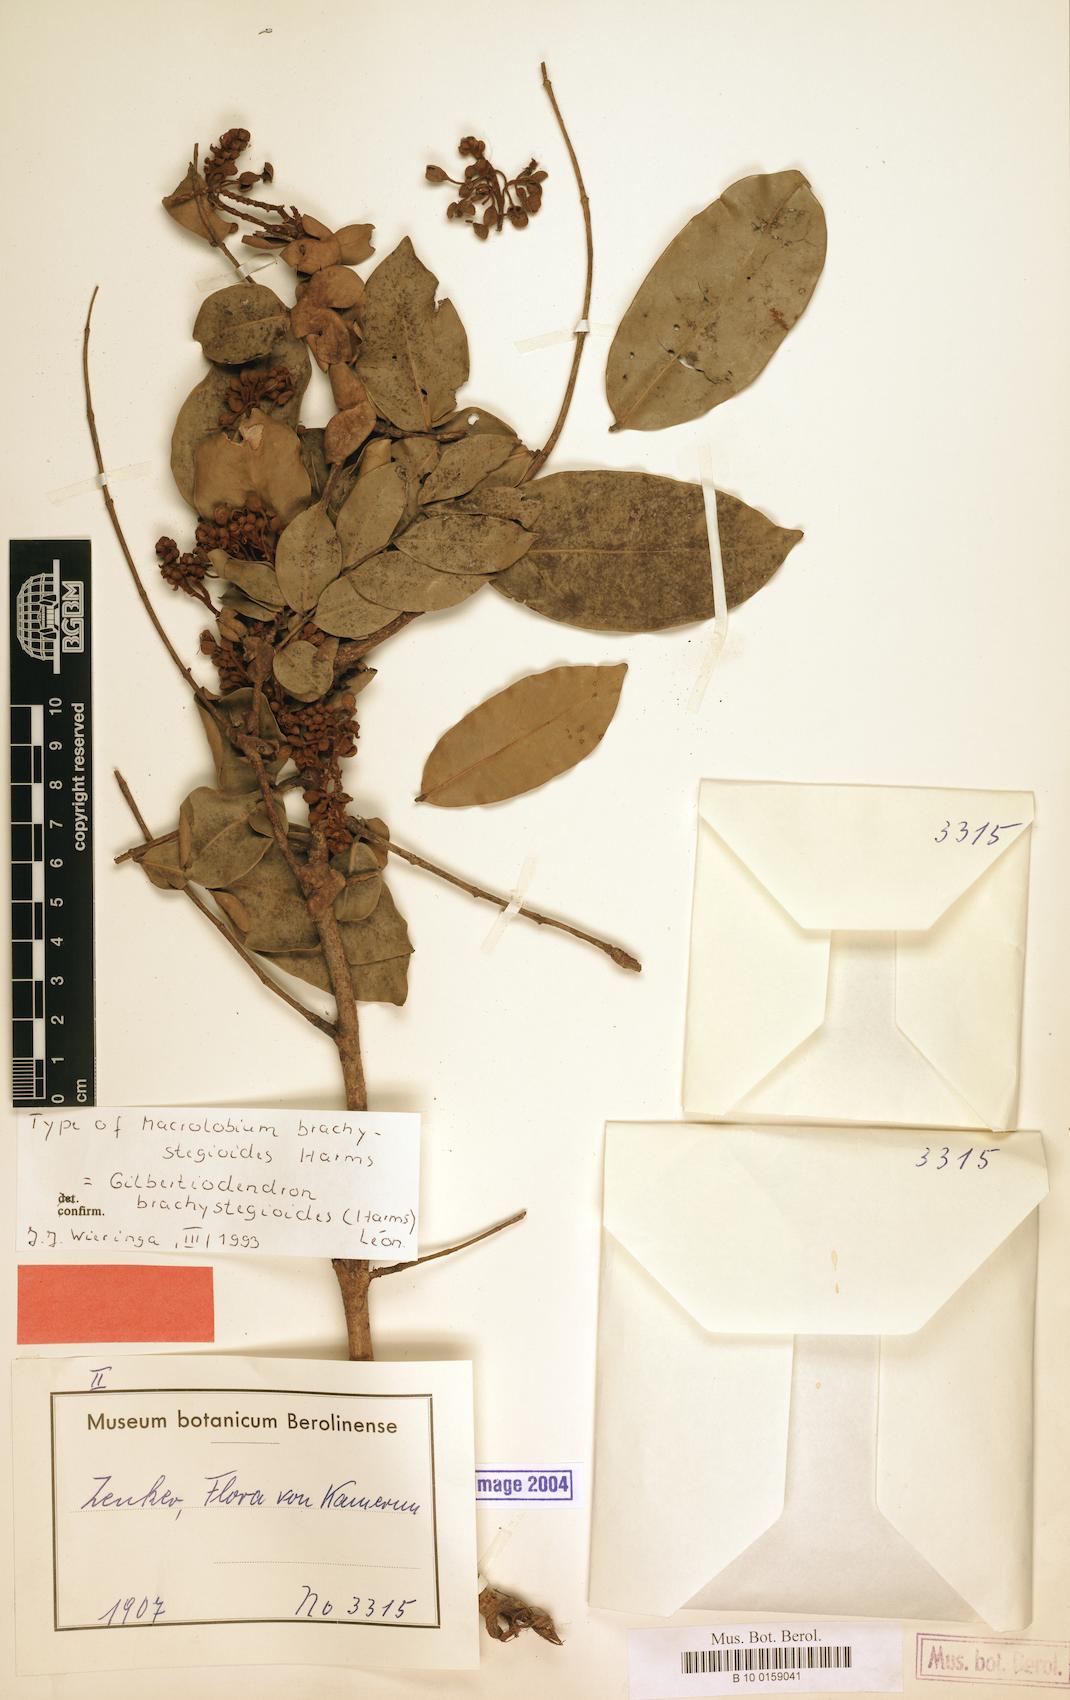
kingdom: Plantae
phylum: Tracheophyta
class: Magnoliopsida
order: Fabales
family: Fabaceae
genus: Gilbertiodendron
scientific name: Gilbertiodendron brachystegioides
